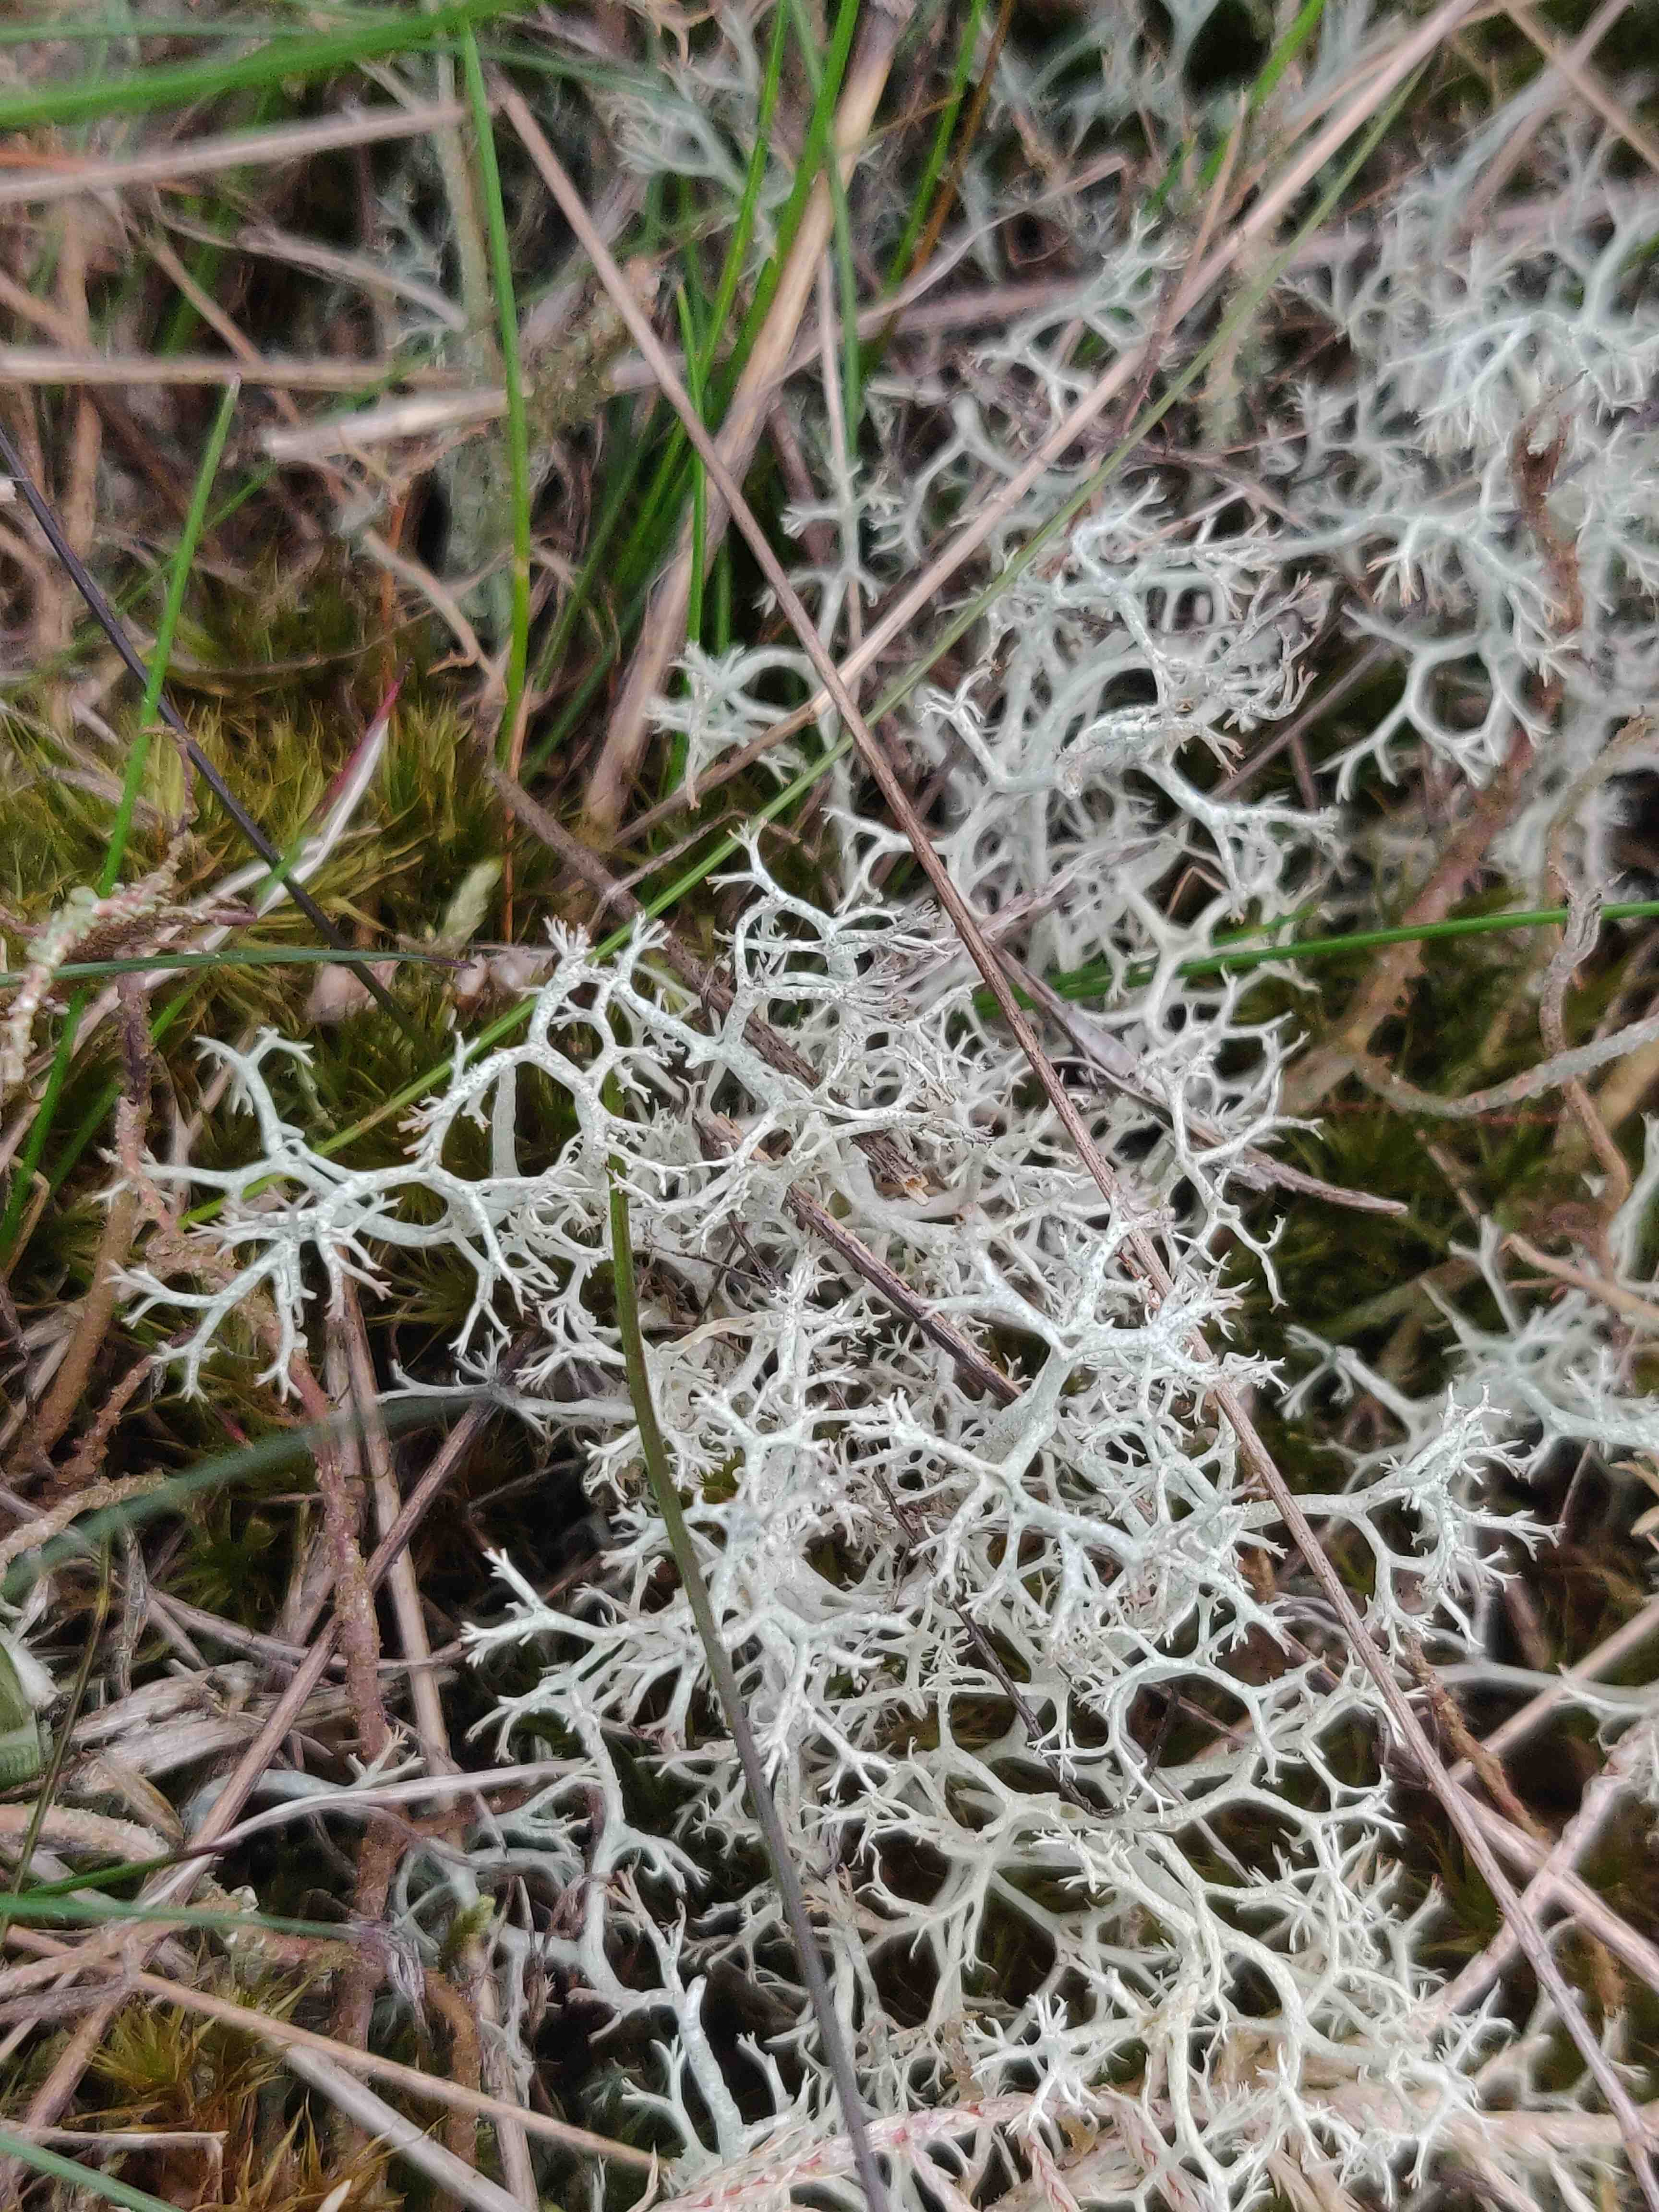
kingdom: Fungi
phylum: Ascomycota
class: Lecanoromycetes
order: Lecanorales
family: Cladoniaceae
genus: Cladonia
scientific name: Cladonia portentosa
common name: hede-rensdyrlav
